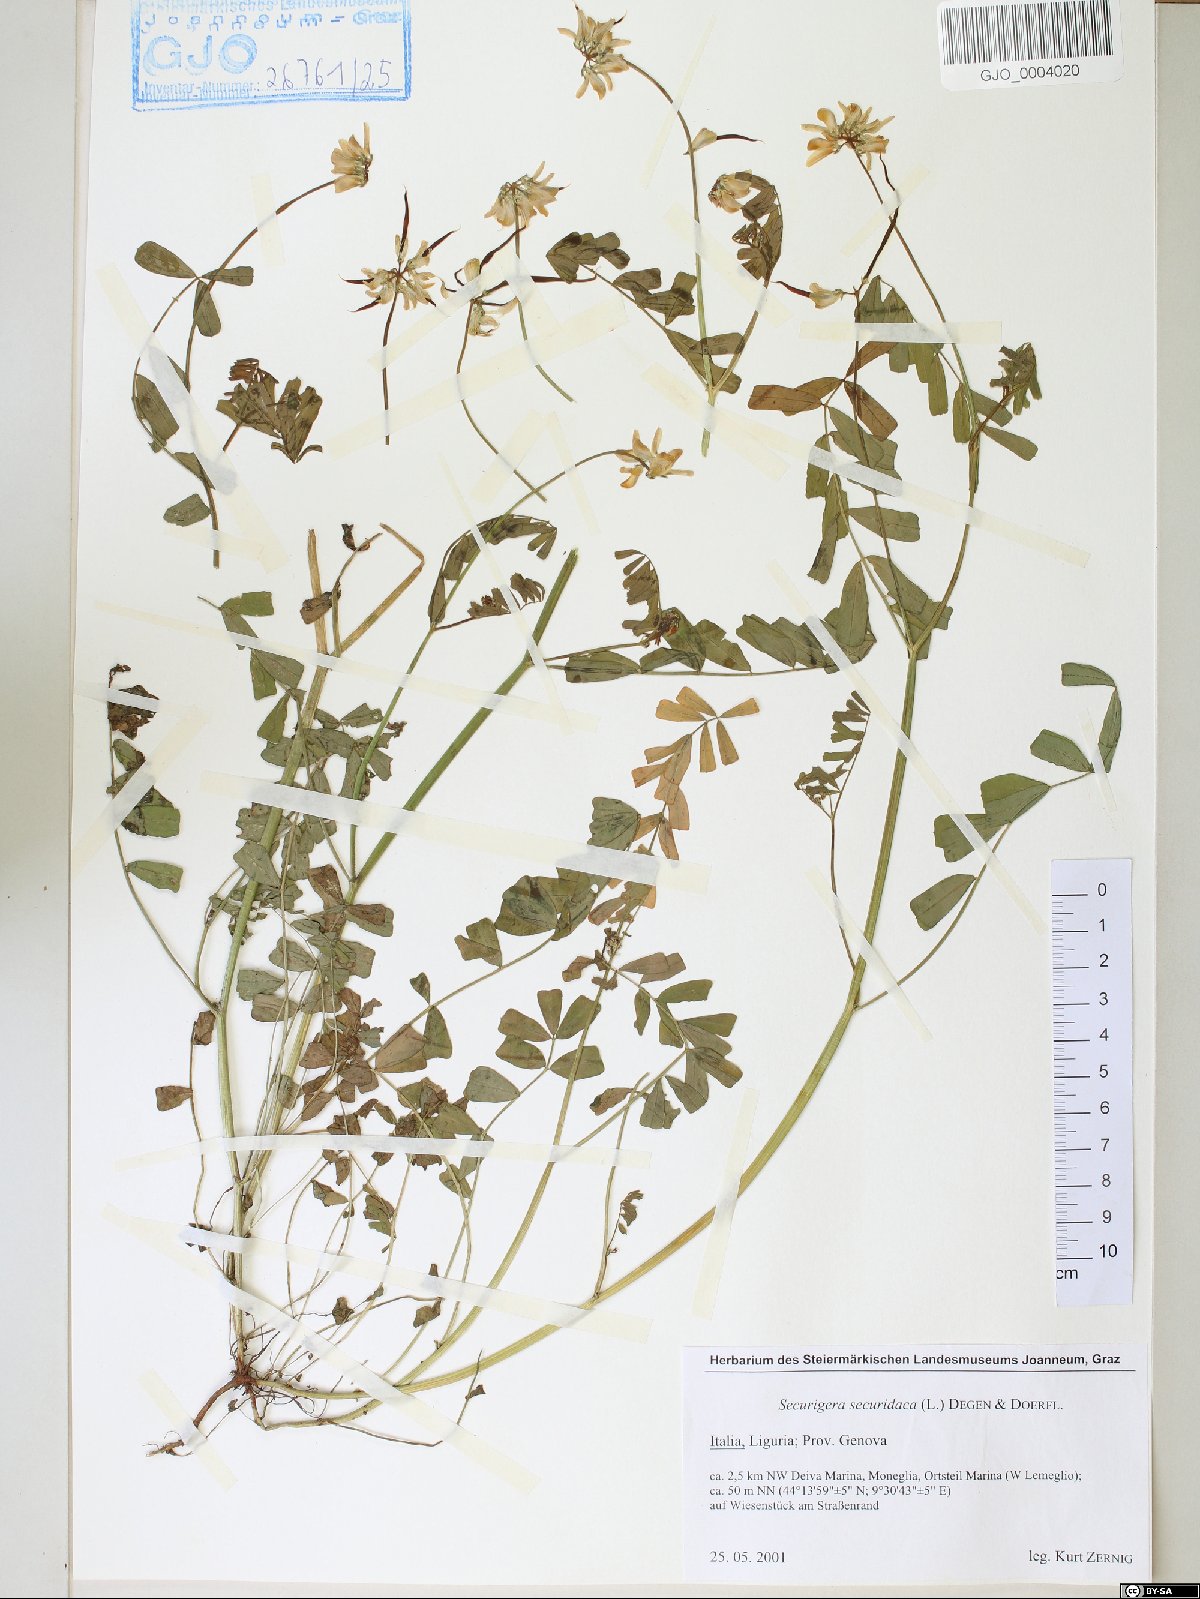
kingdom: Plantae
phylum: Tracheophyta
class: Magnoliopsida
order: Fabales
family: Fabaceae
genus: Coronilla
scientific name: Coronilla securidaca
